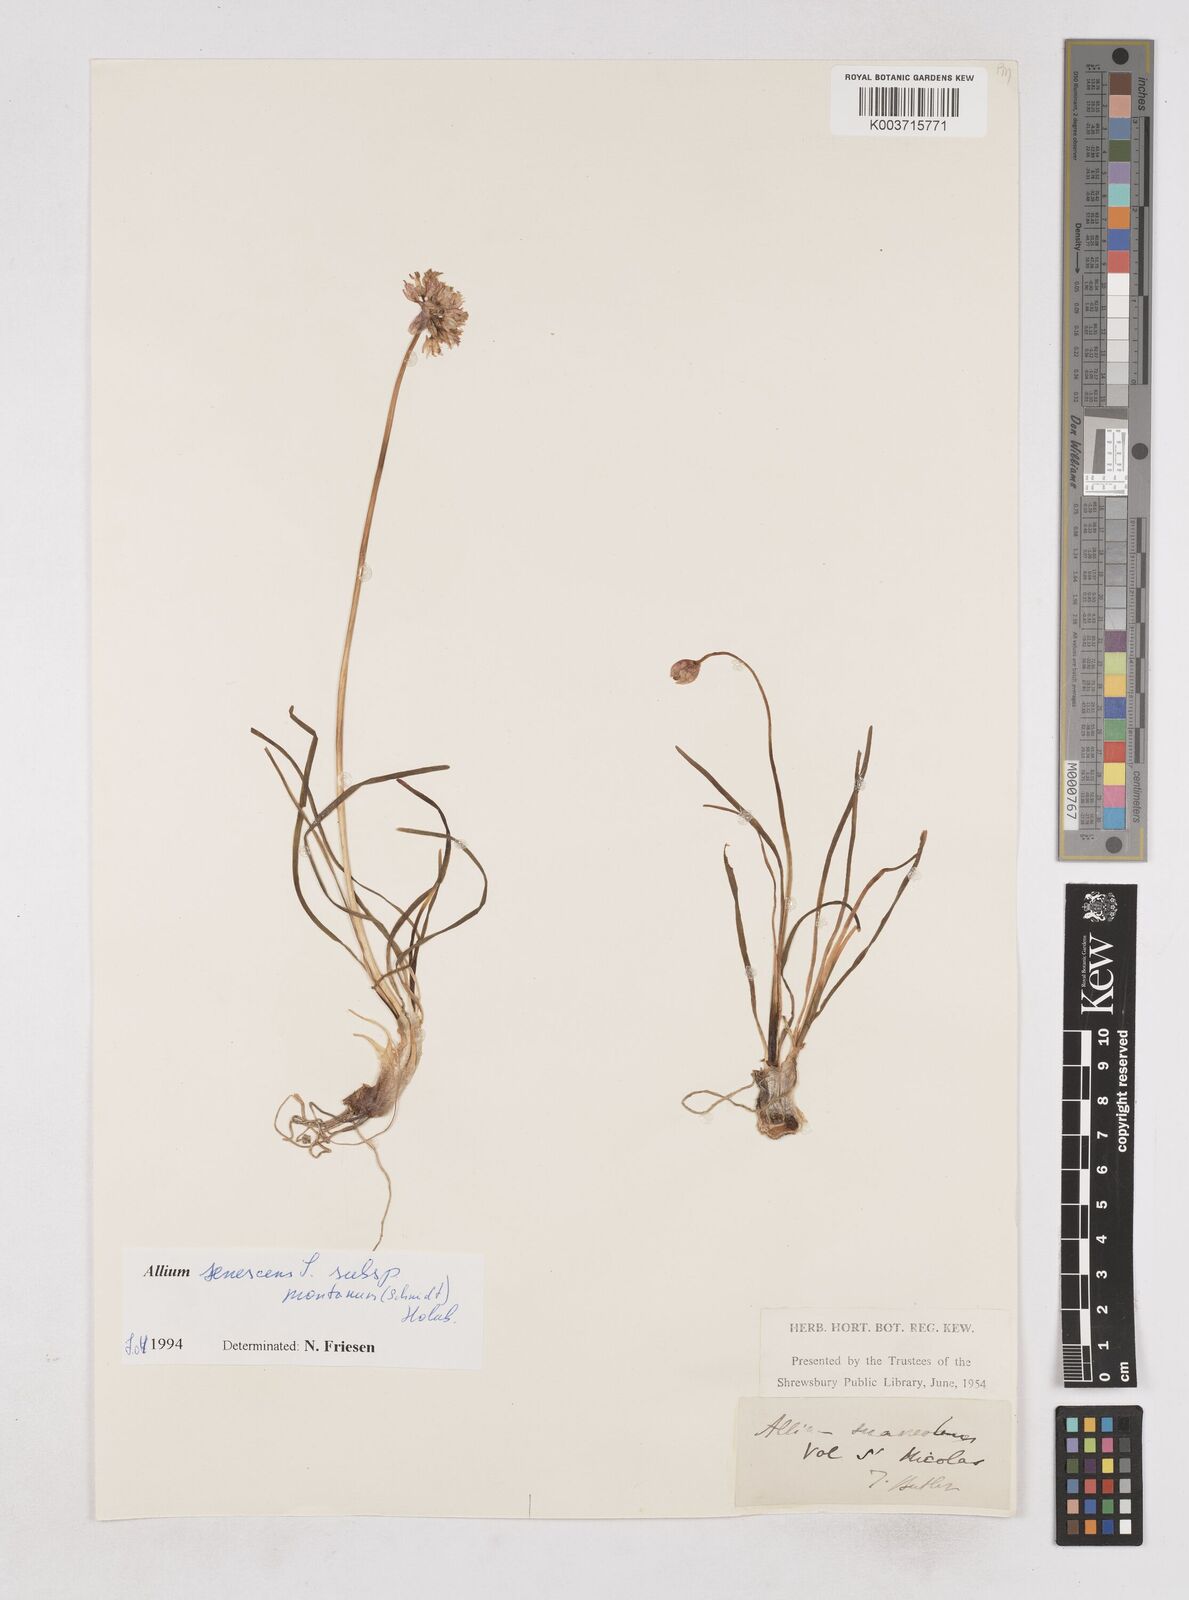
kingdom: Plantae
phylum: Tracheophyta
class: Liliopsida
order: Asparagales
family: Amaryllidaceae
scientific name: Amaryllidaceae
